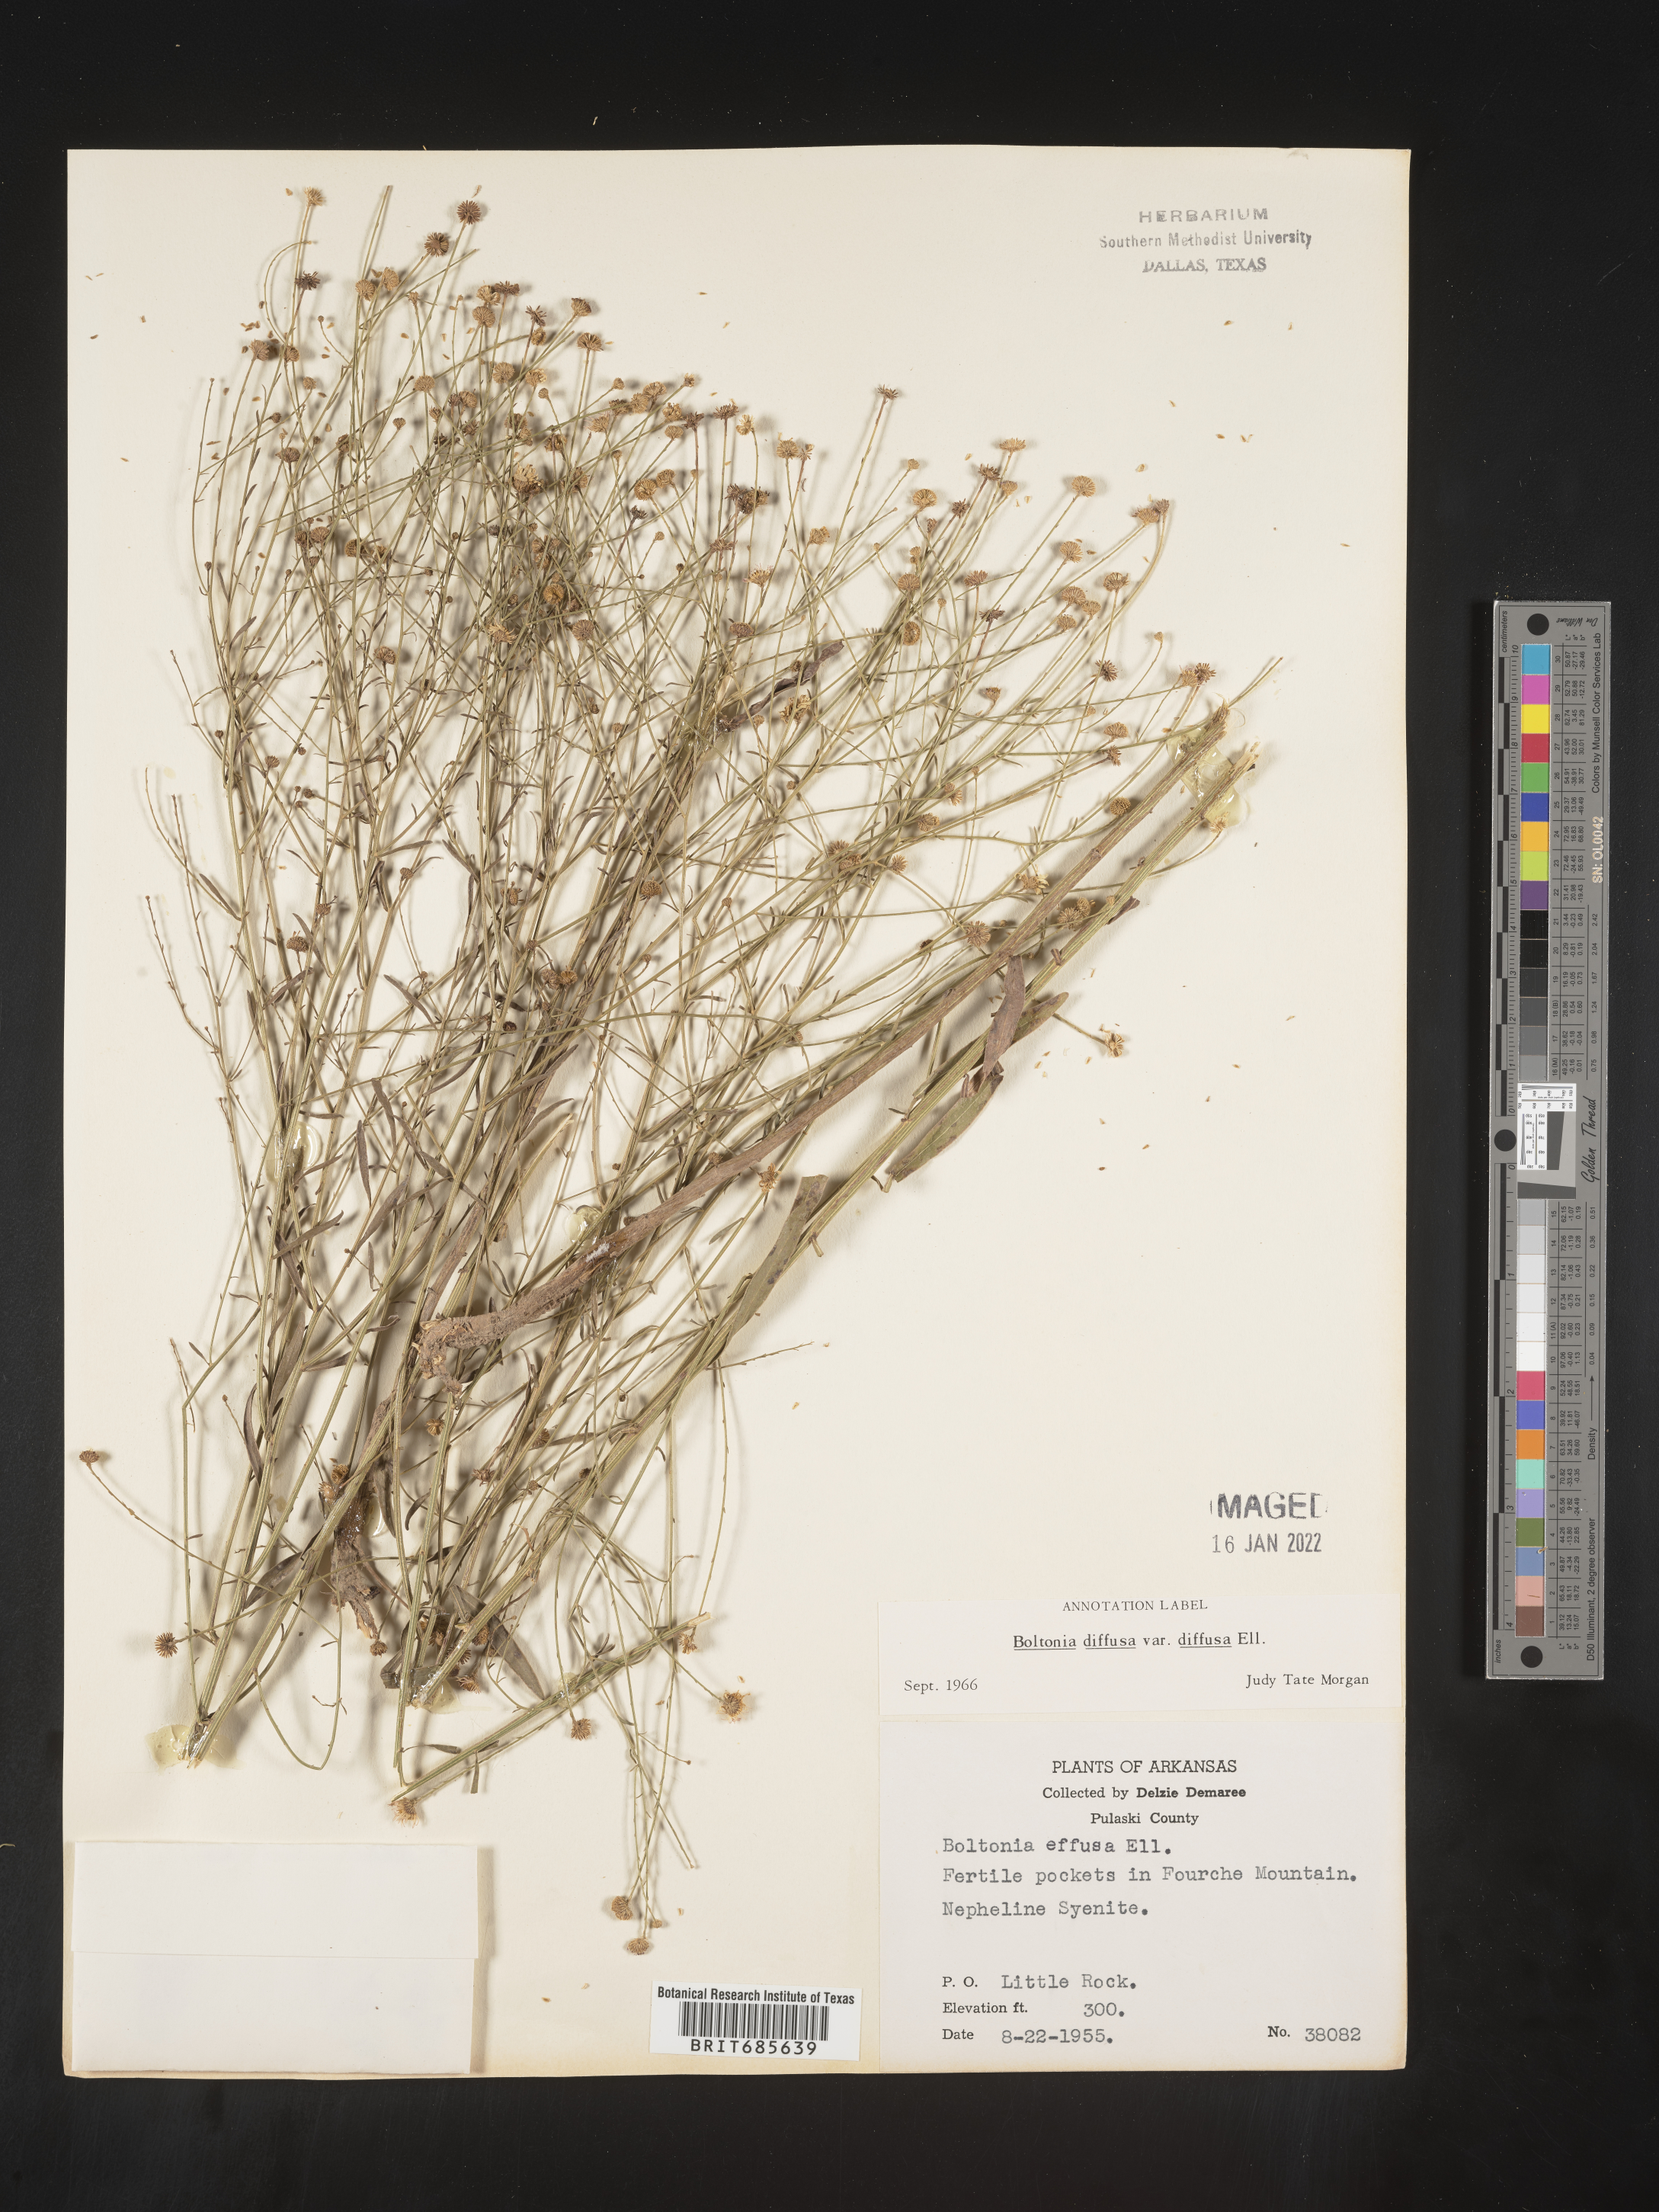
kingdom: Plantae
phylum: Tracheophyta
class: Magnoliopsida
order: Asterales
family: Asteraceae
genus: Boltonia
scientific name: Boltonia diffusa
